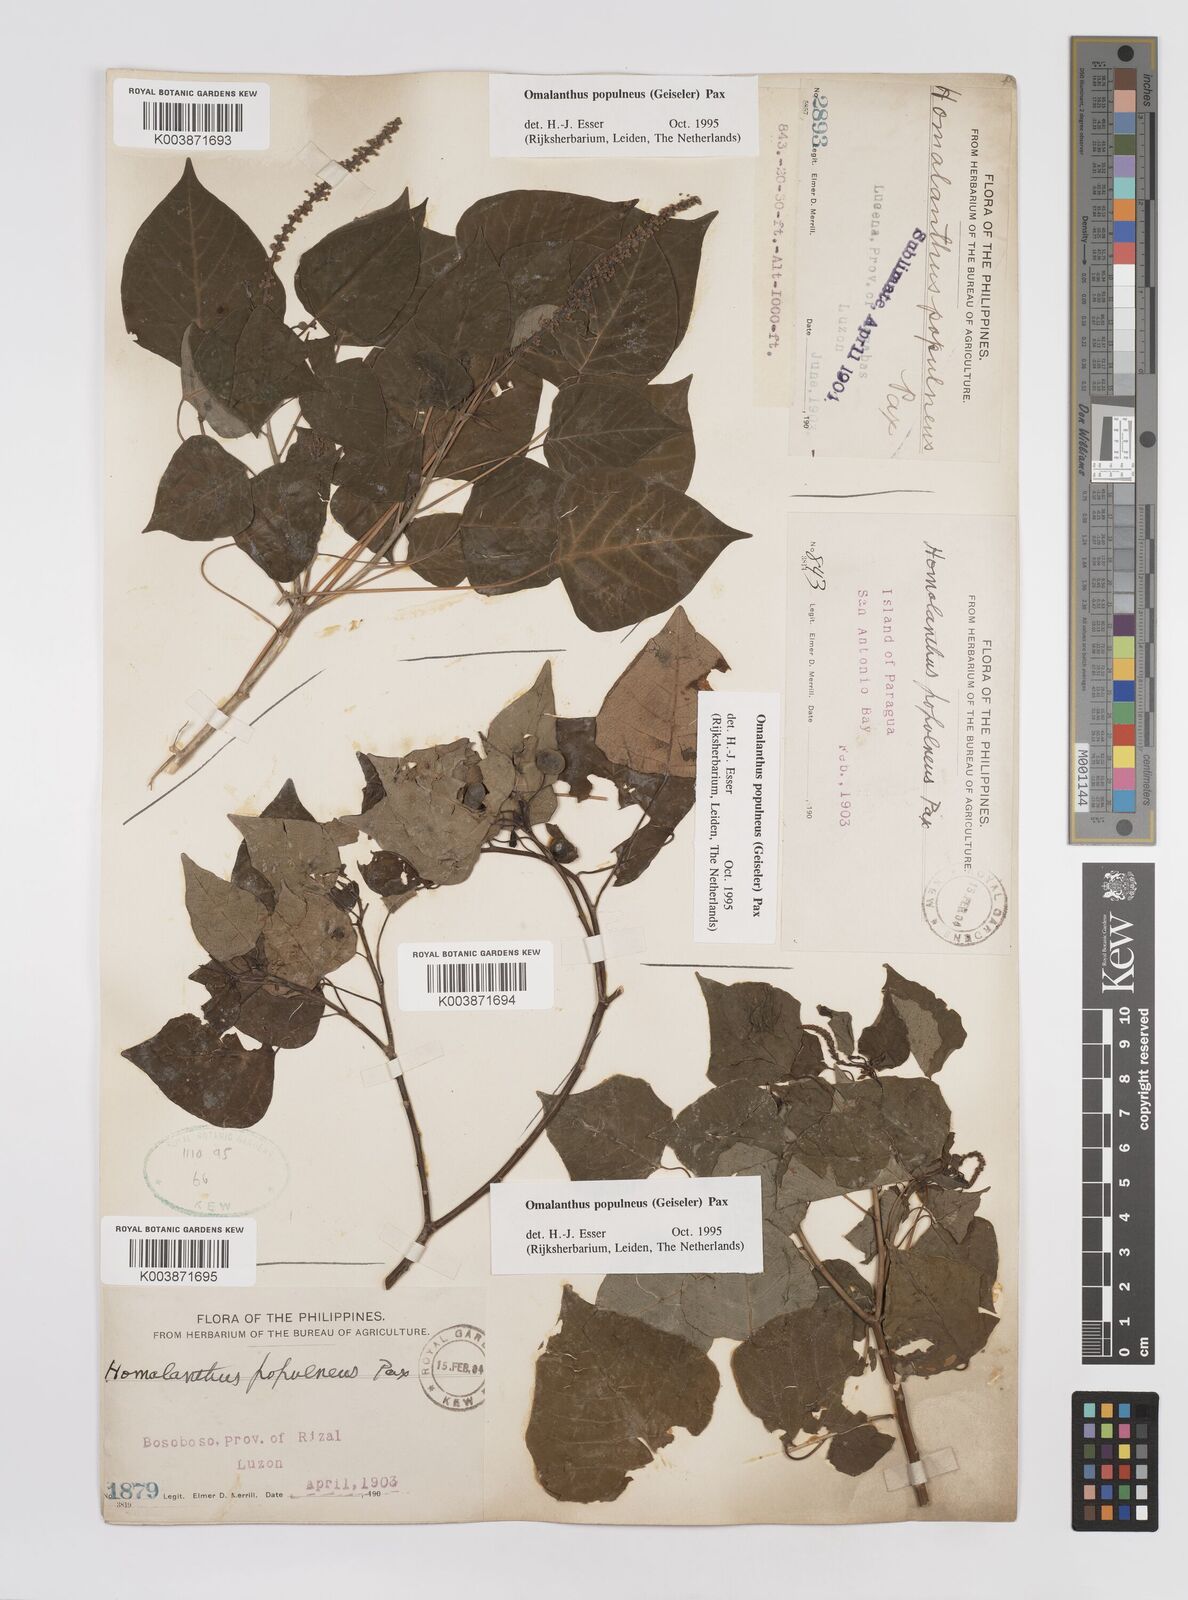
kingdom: Plantae
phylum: Tracheophyta
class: Magnoliopsida
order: Malpighiales
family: Euphorbiaceae
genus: Homalanthus
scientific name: Homalanthus populneus
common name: Spurge
